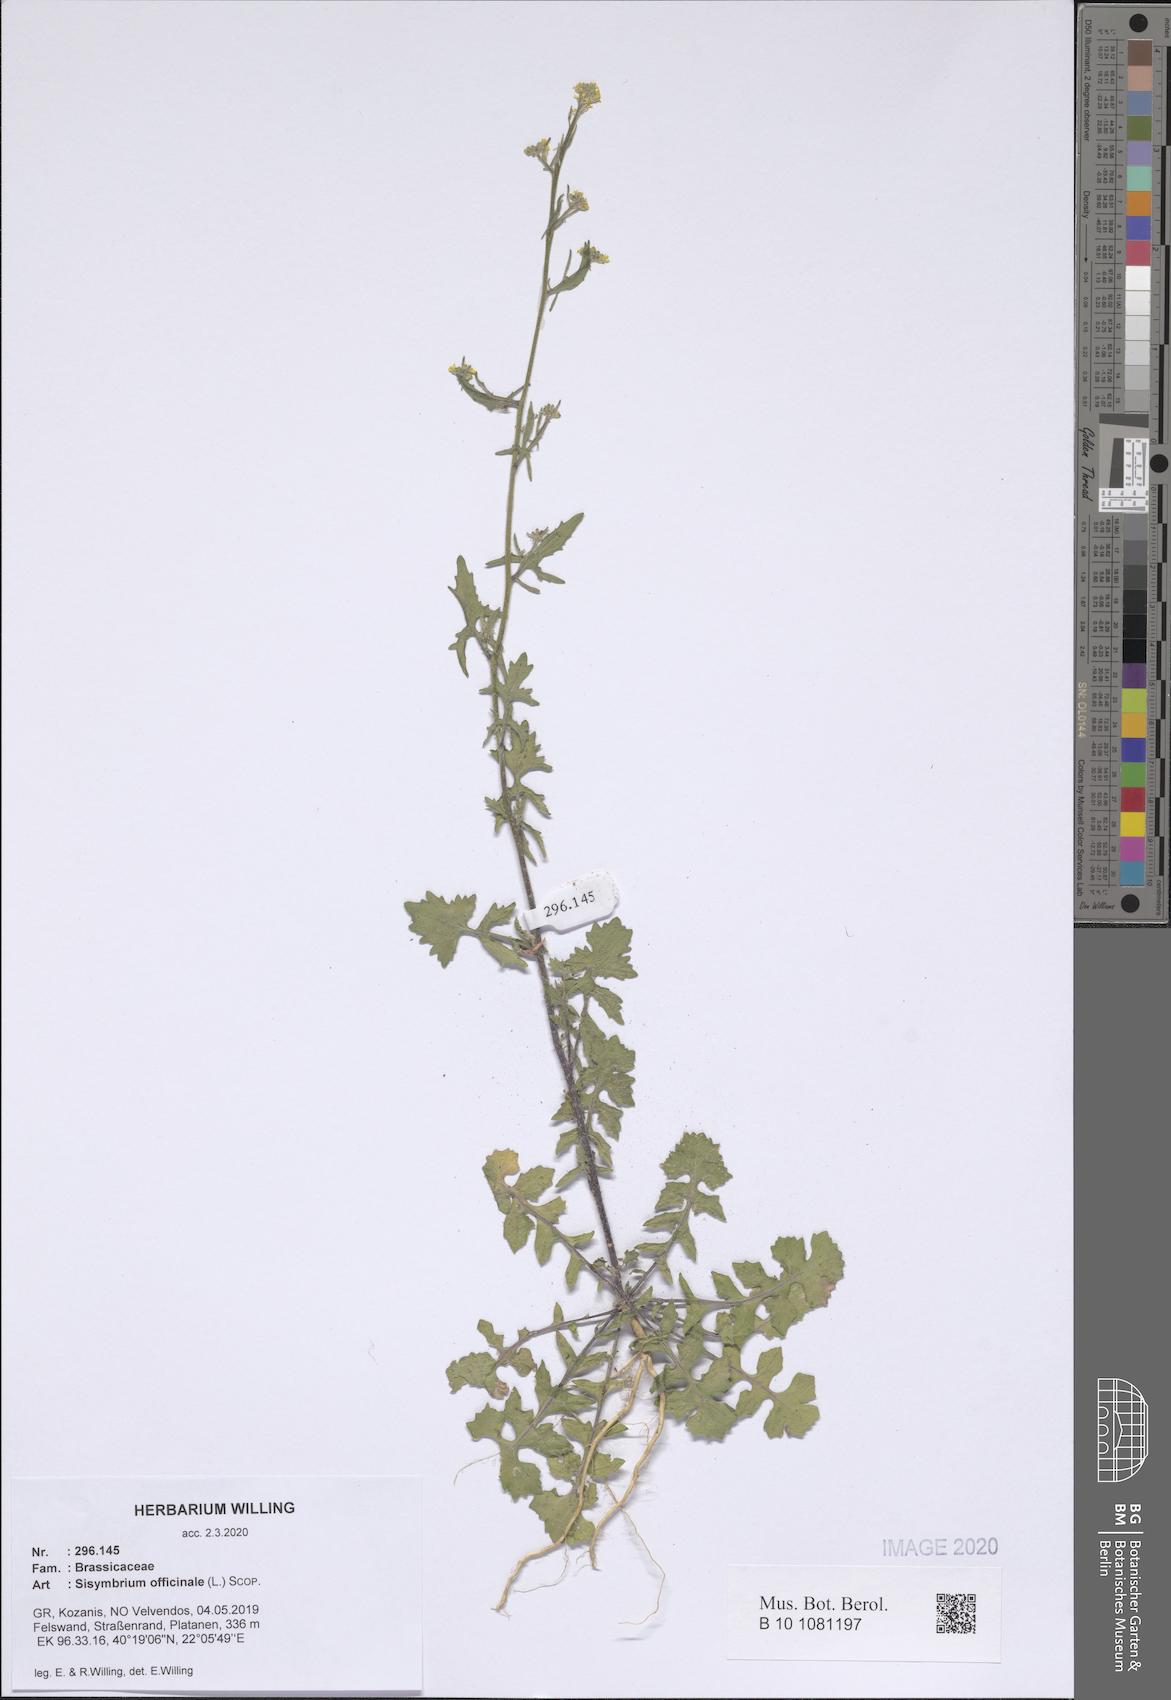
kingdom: Plantae
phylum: Tracheophyta
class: Magnoliopsida
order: Brassicales
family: Brassicaceae
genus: Sisymbrium
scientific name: Sisymbrium officinale
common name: Hedge mustard
